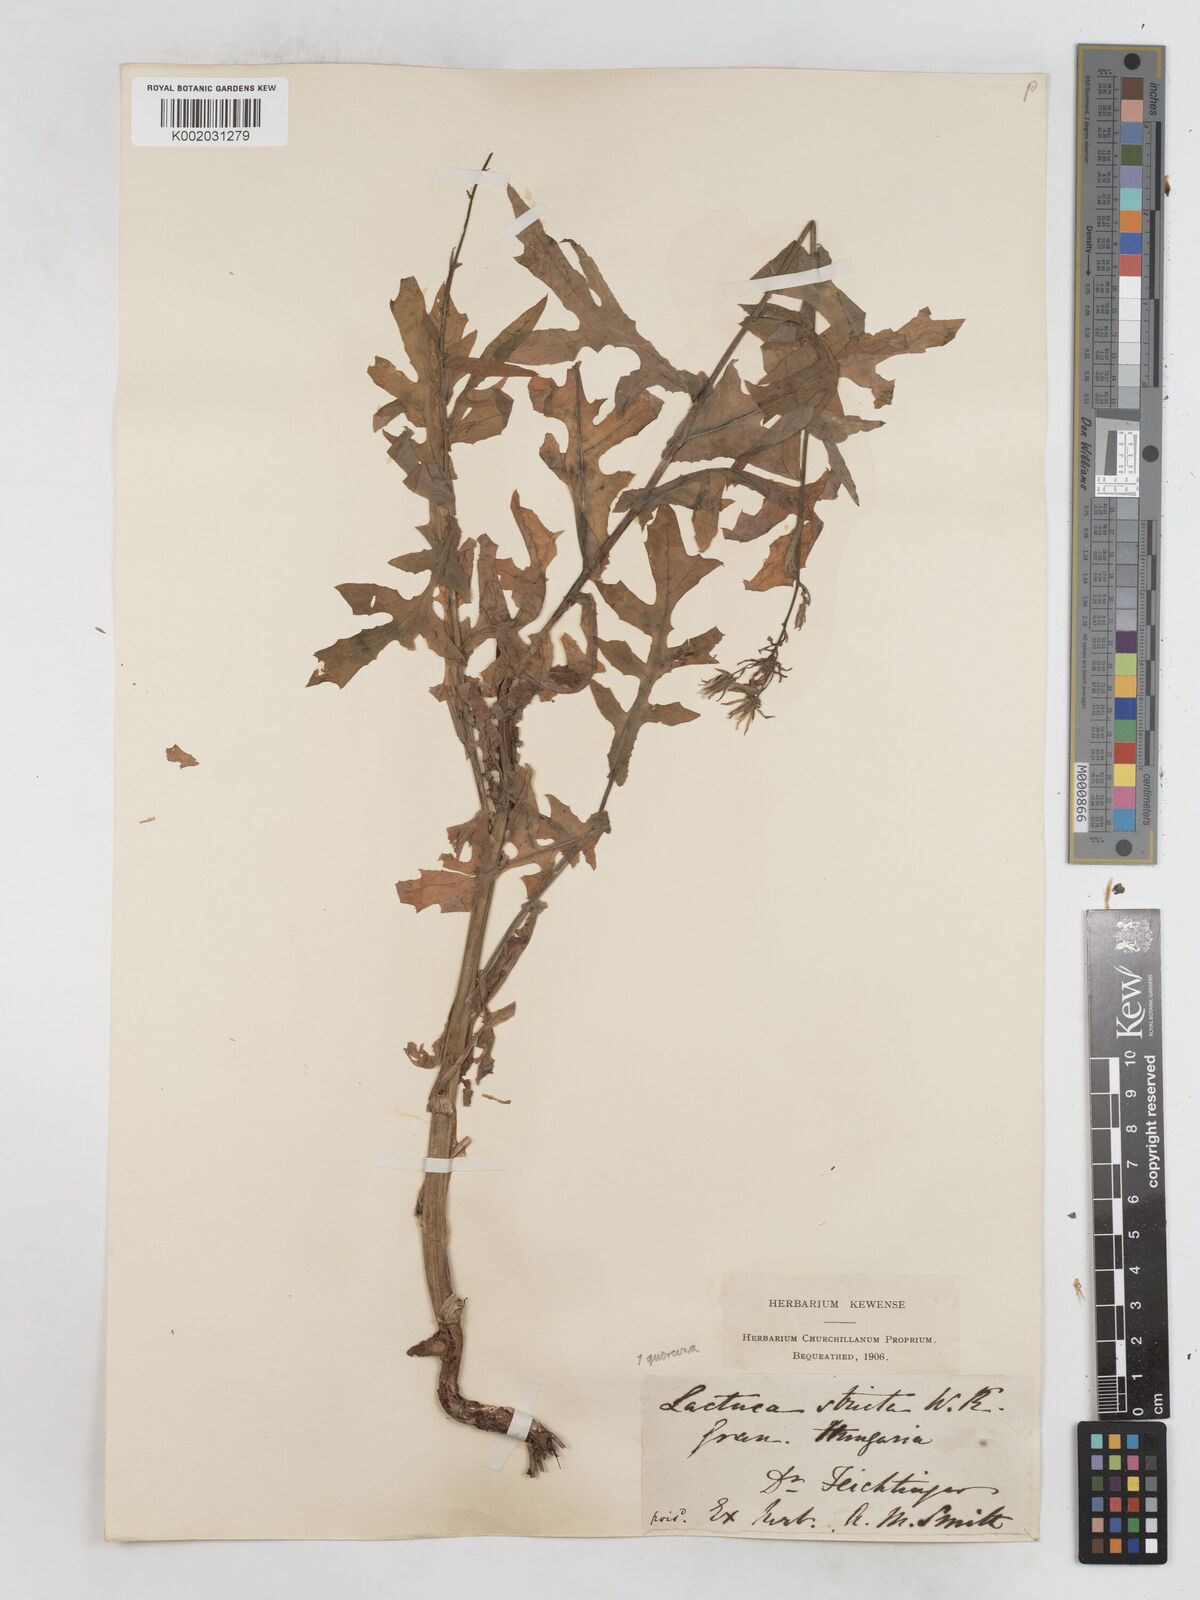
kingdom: Plantae
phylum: Tracheophyta
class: Magnoliopsida
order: Asterales
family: Asteraceae
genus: Lactuca
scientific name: Lactuca quercina
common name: Wild lettuce
